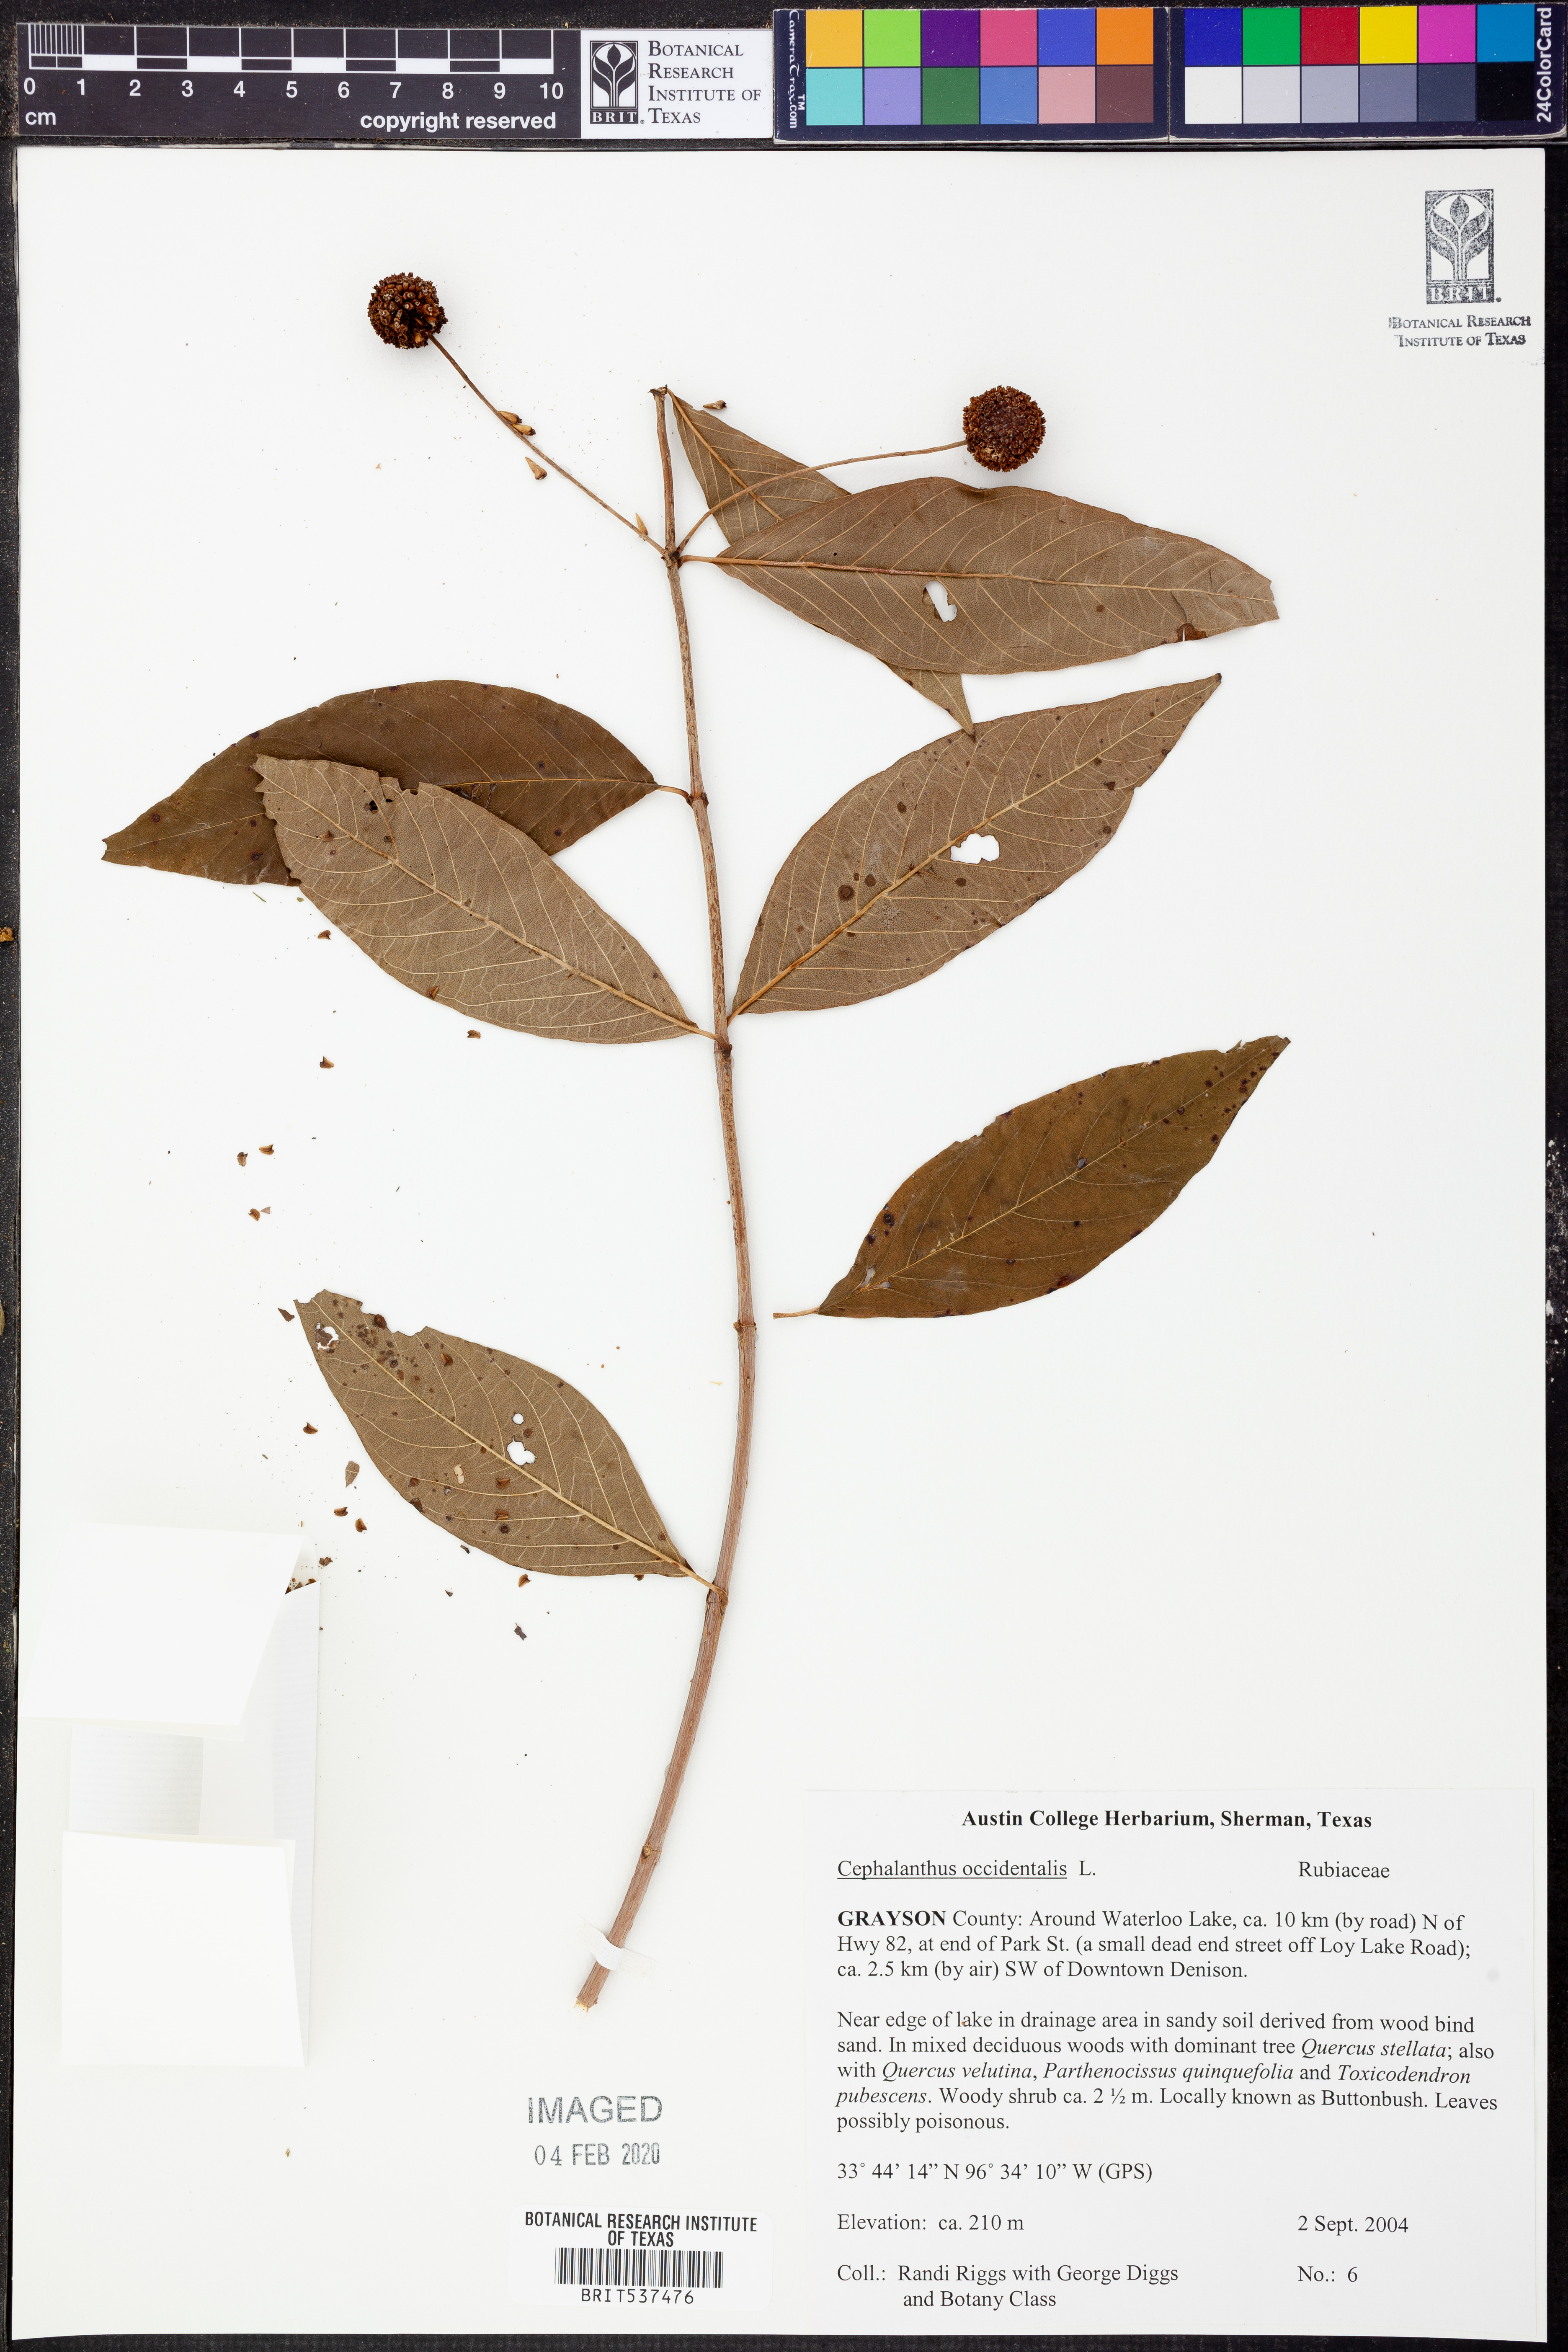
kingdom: Plantae
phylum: Tracheophyta
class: Magnoliopsida
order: Gentianales
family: Rubiaceae
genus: Cephalanthus
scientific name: Cephalanthus occidentalis
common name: Button-willow
